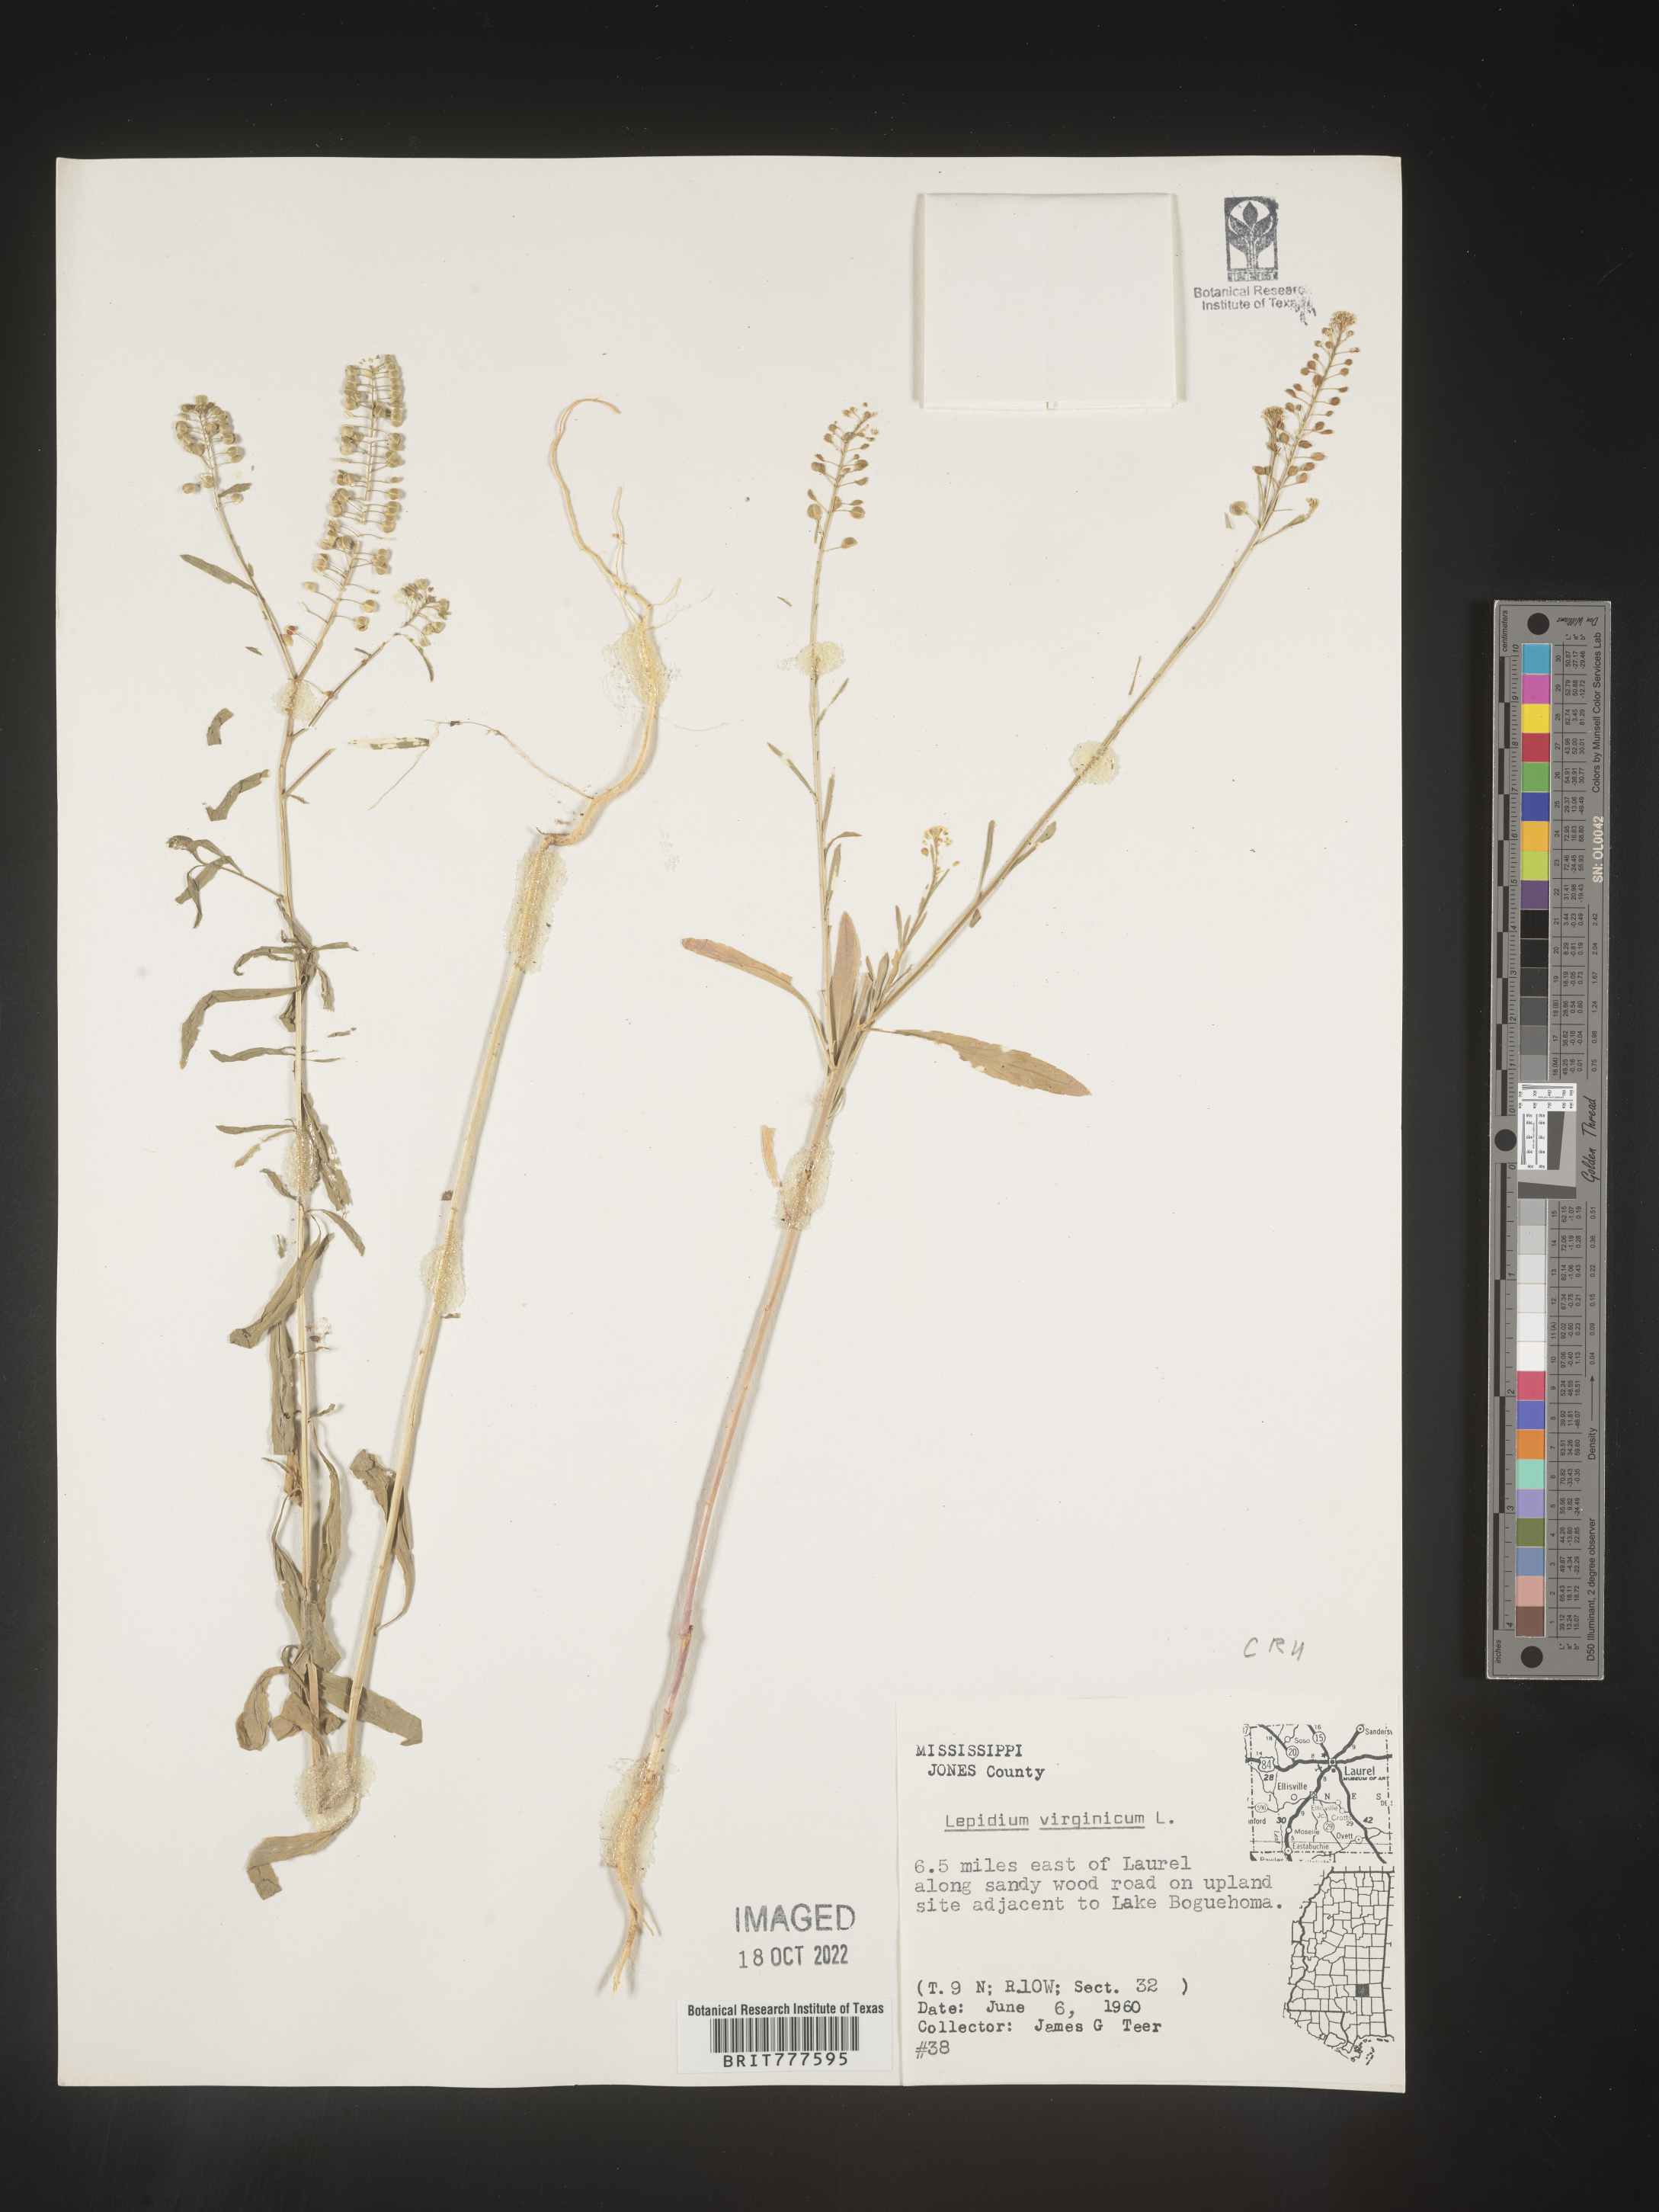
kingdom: Plantae
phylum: Tracheophyta
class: Magnoliopsida
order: Brassicales
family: Brassicaceae
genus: Lepidium
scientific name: Lepidium virginicum
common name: Least pepperwort
